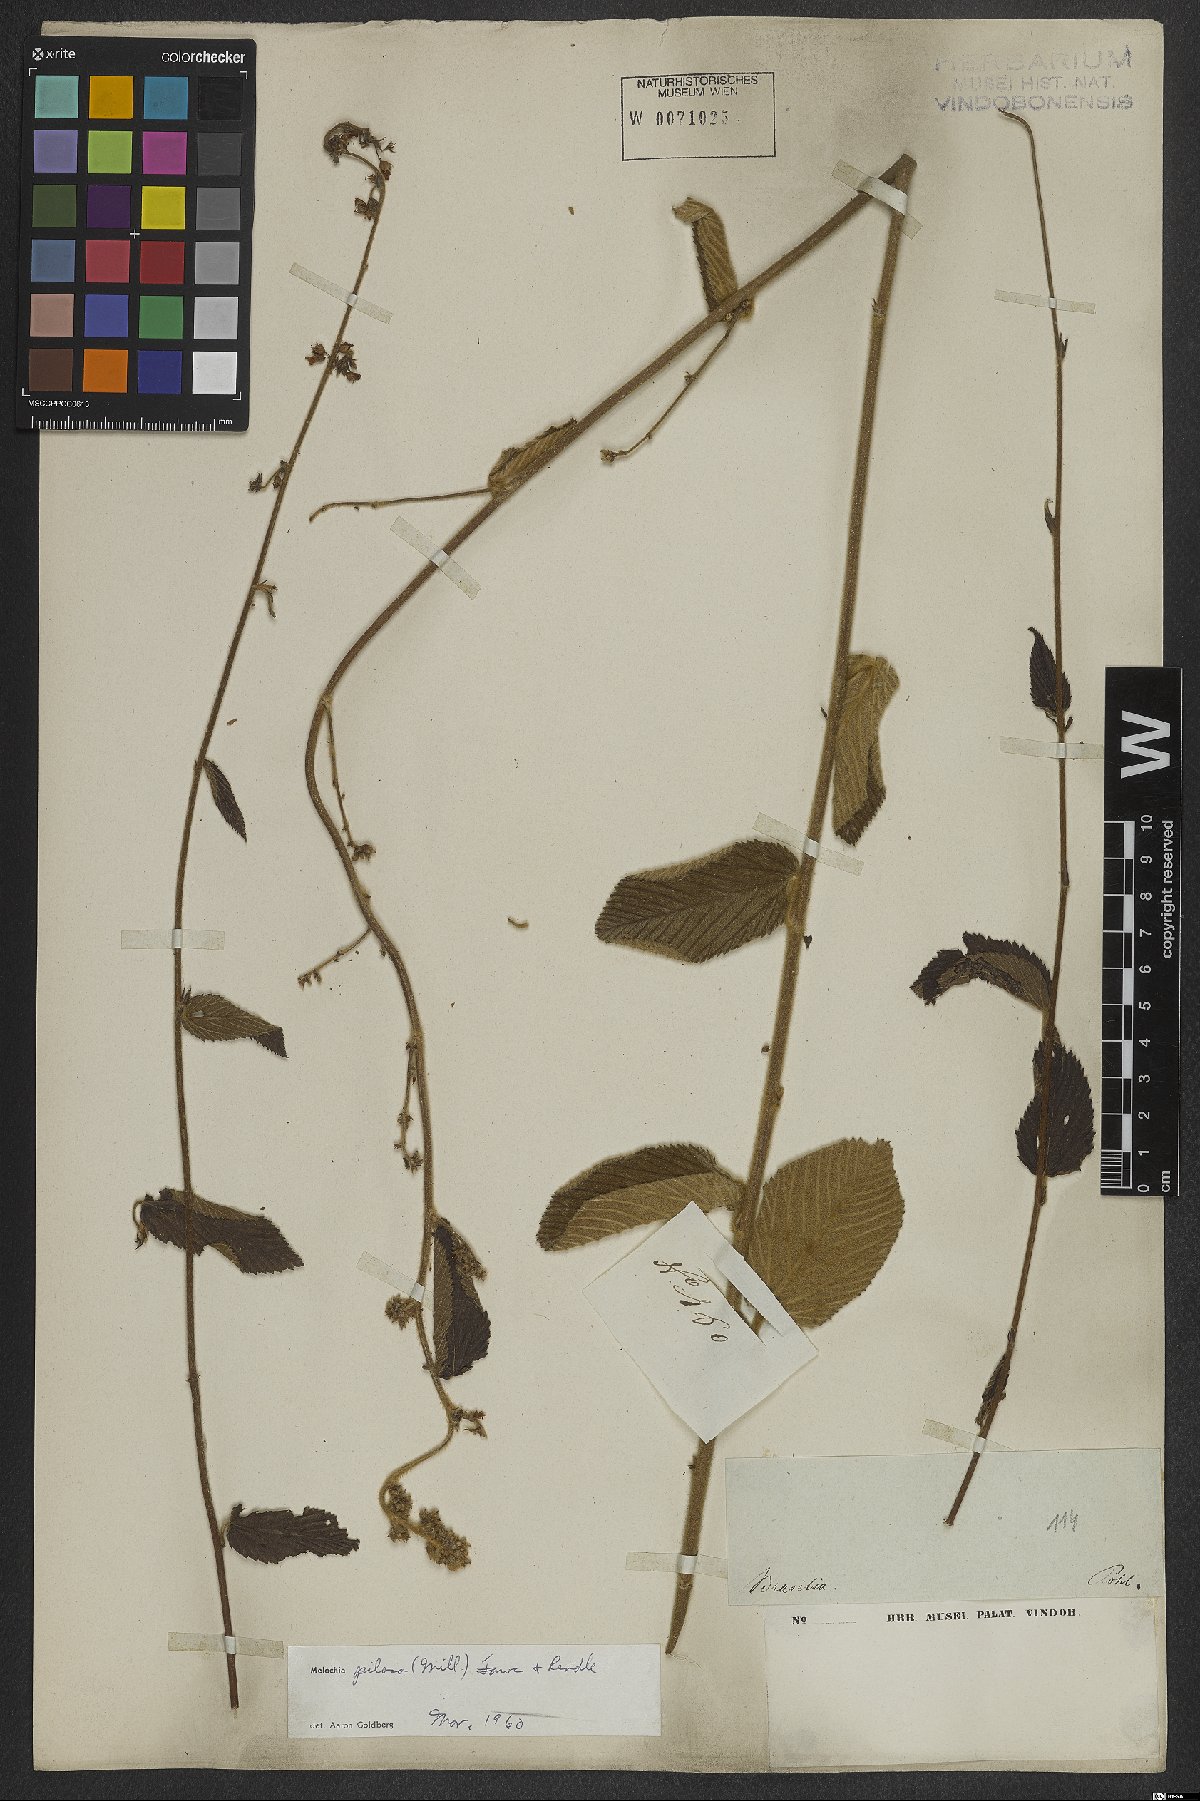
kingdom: Plantae
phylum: Tracheophyta
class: Magnoliopsida
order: Malvales
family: Malvaceae
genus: Melochia
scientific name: Melochia pilosa
